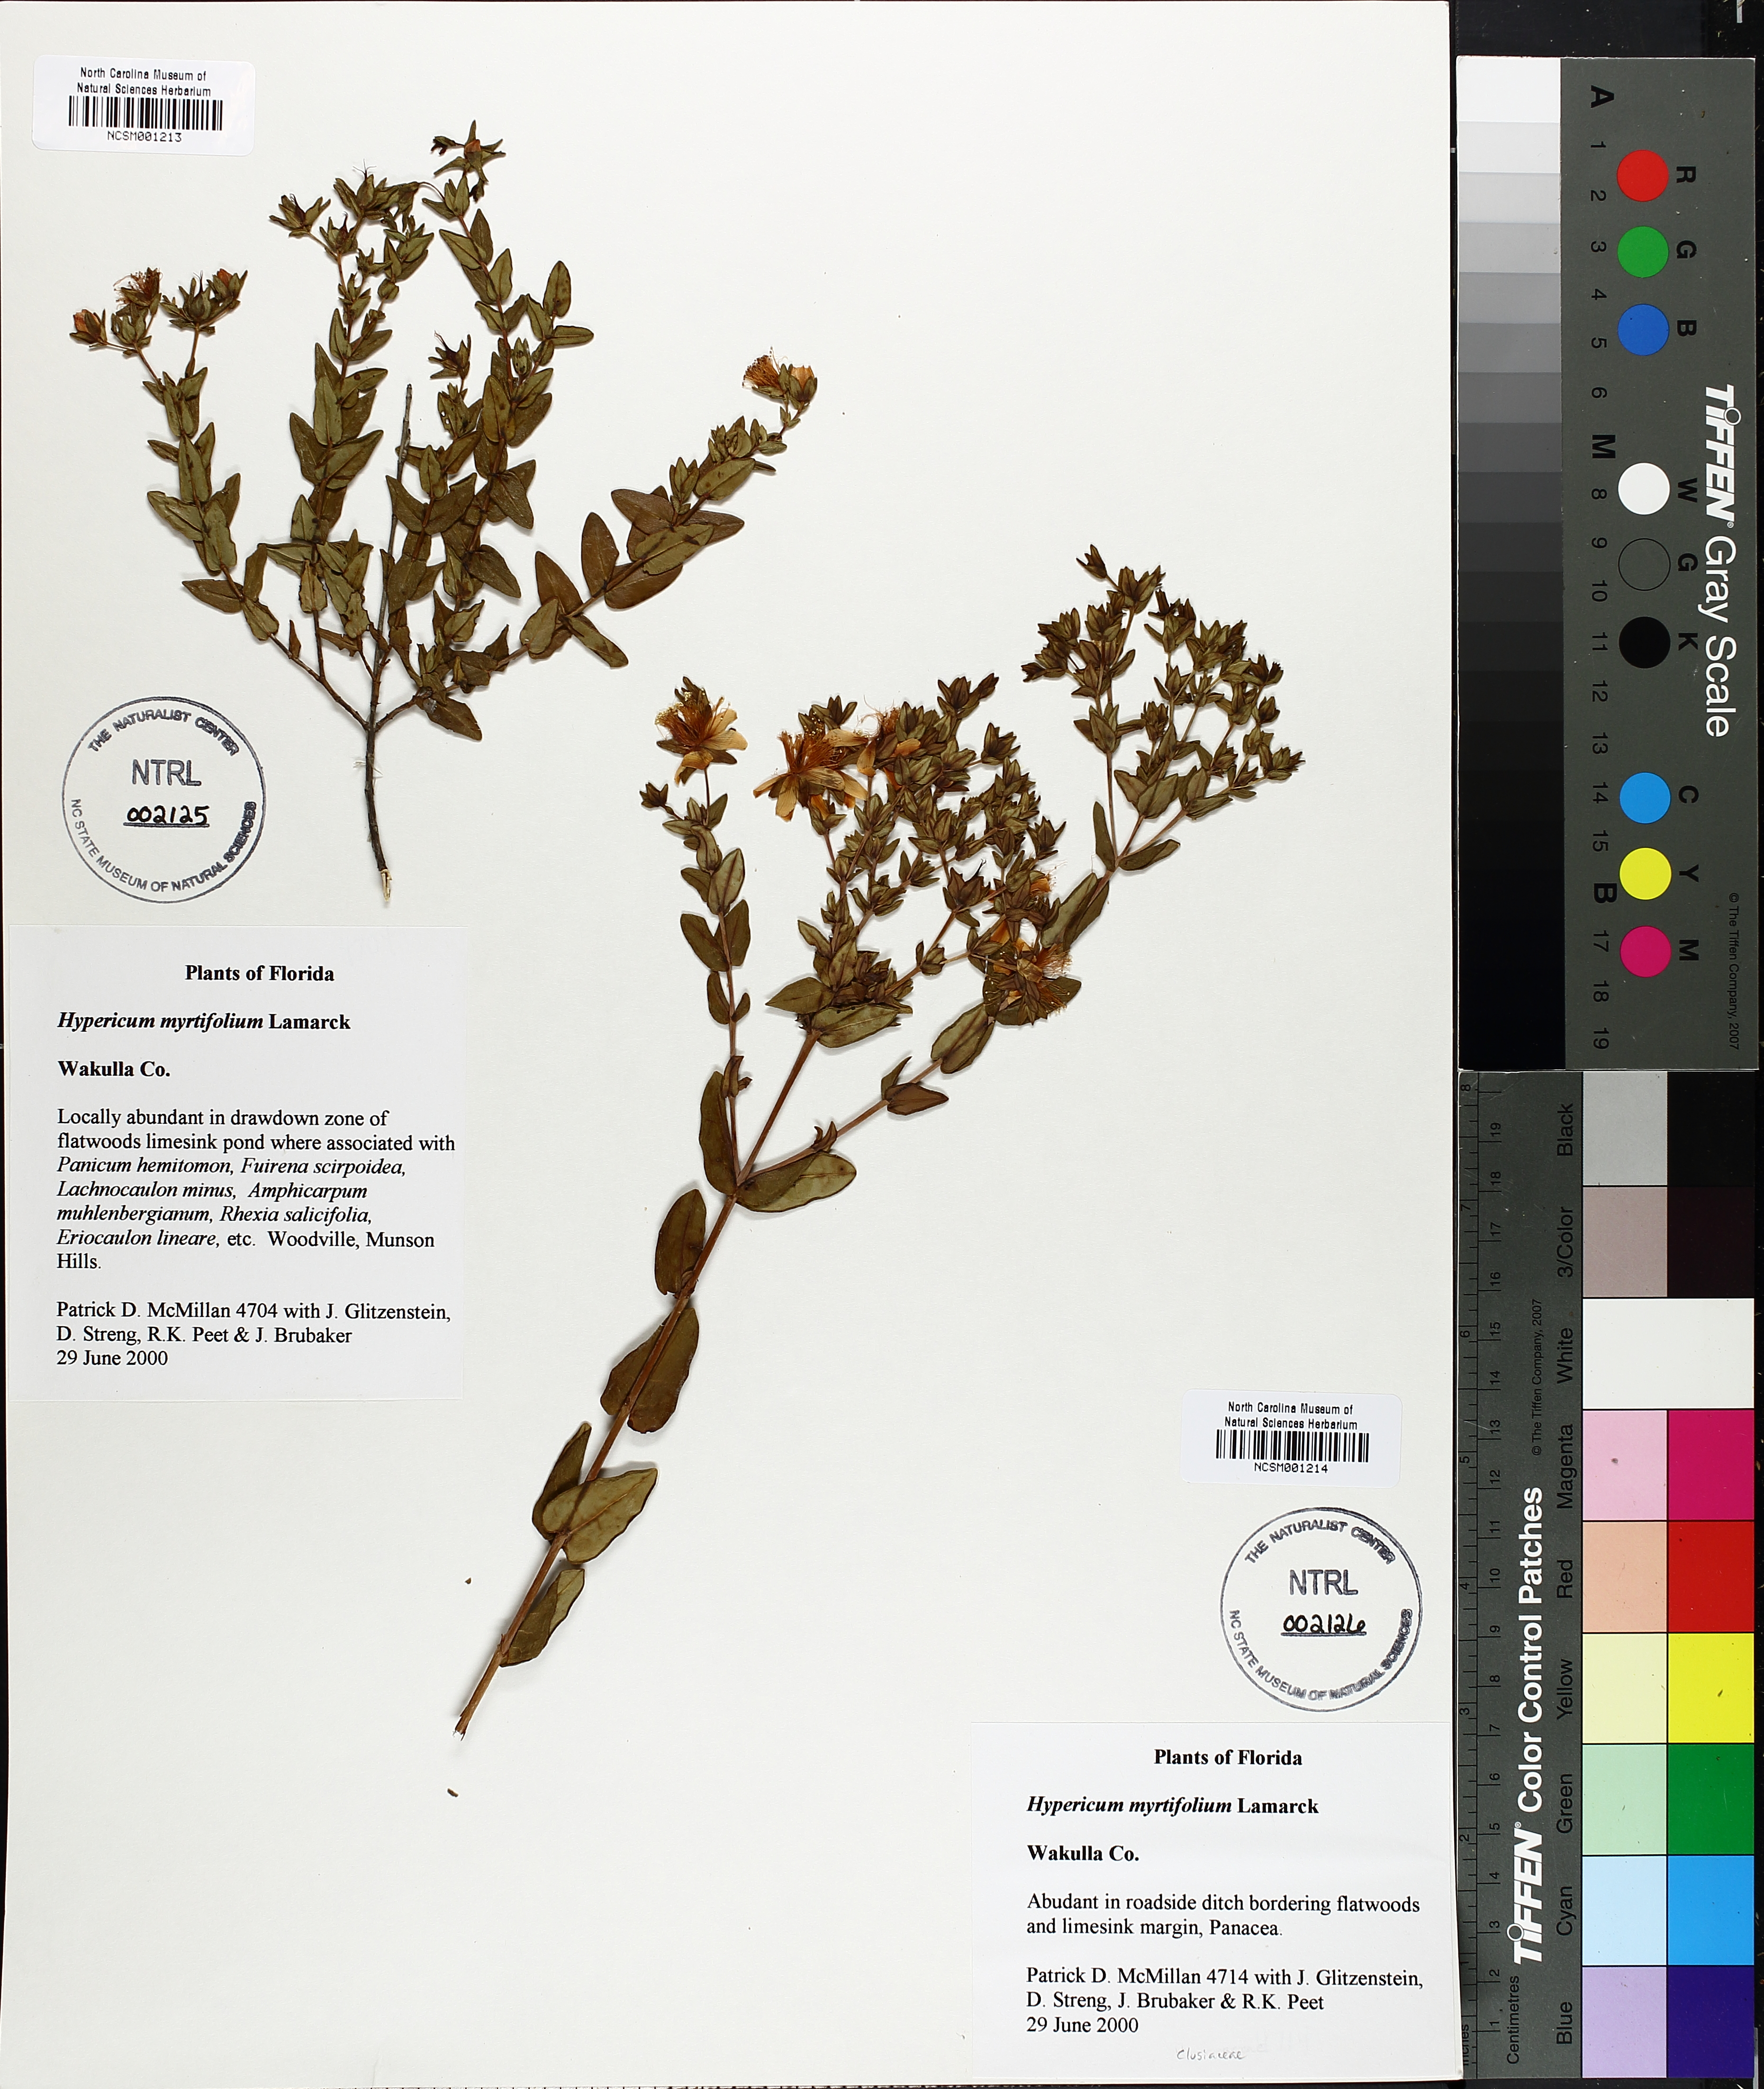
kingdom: Plantae
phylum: Tracheophyta
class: Magnoliopsida
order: Malpighiales
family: Hypericaceae
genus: Hypericum
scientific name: Hypericum myrtifolium
